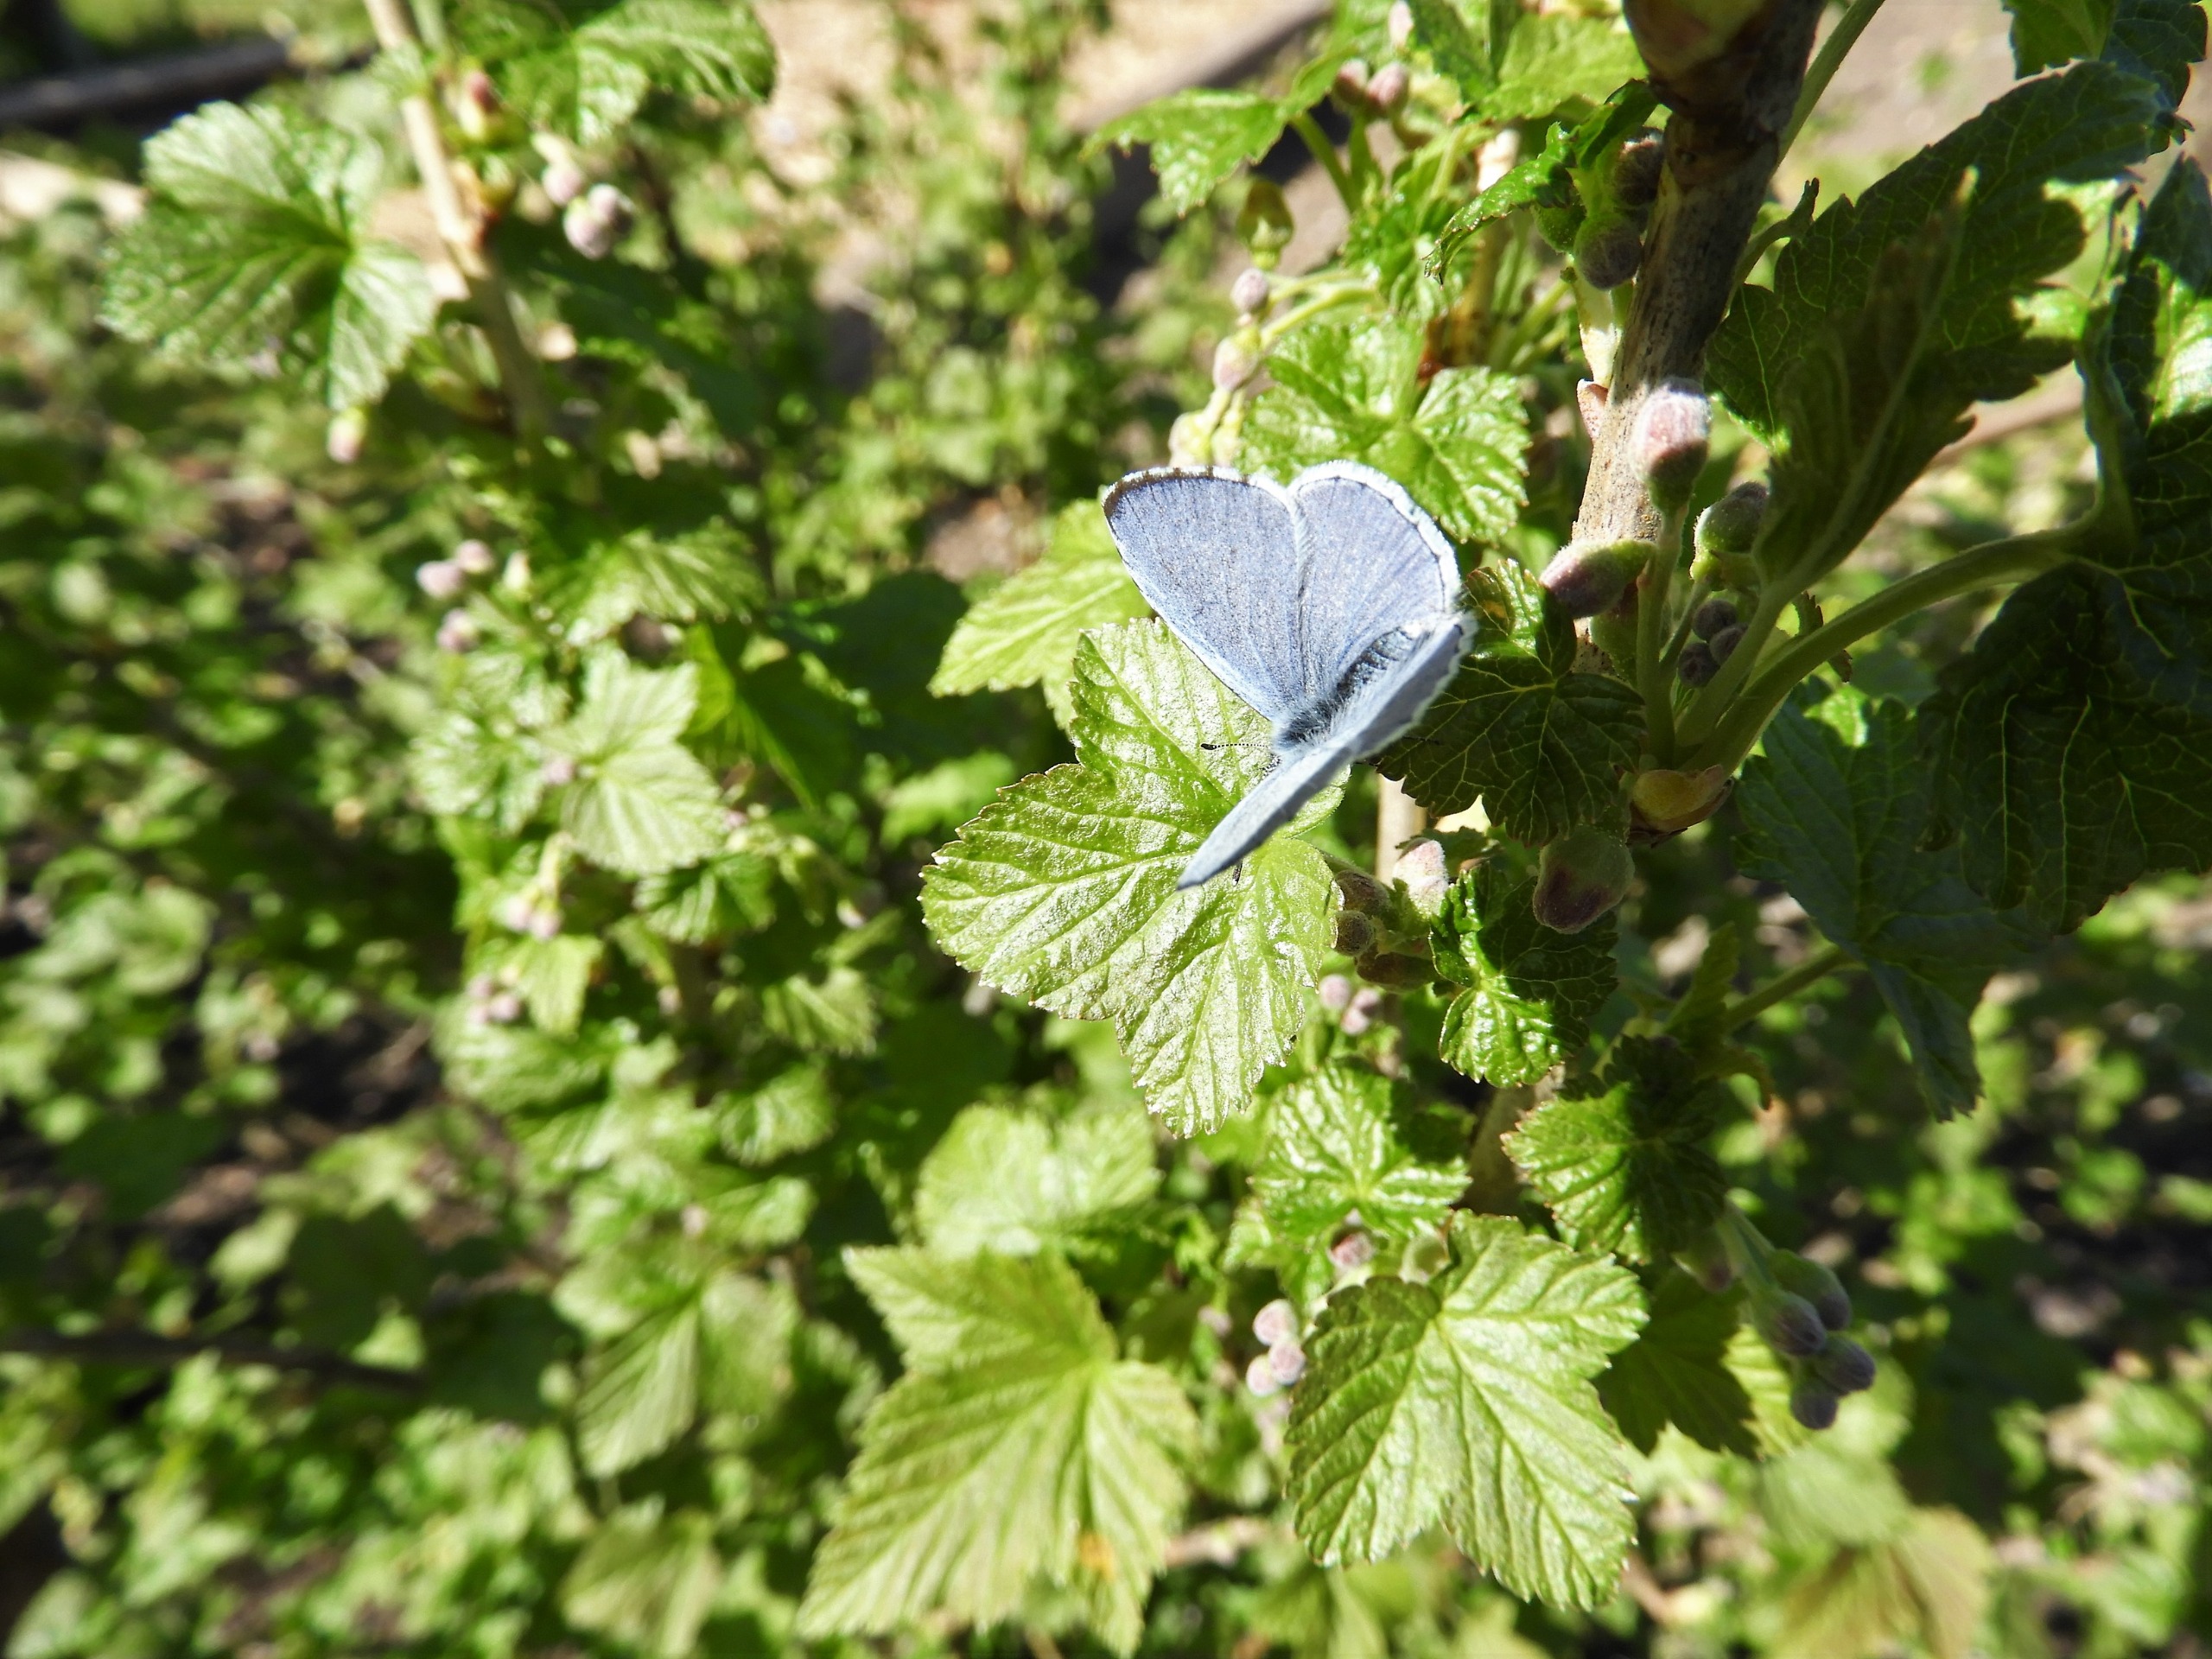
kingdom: Animalia
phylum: Arthropoda
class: Insecta
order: Lepidoptera
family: Lycaenidae
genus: Celastrina
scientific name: Celastrina argiolus
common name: Skovblåfugl
